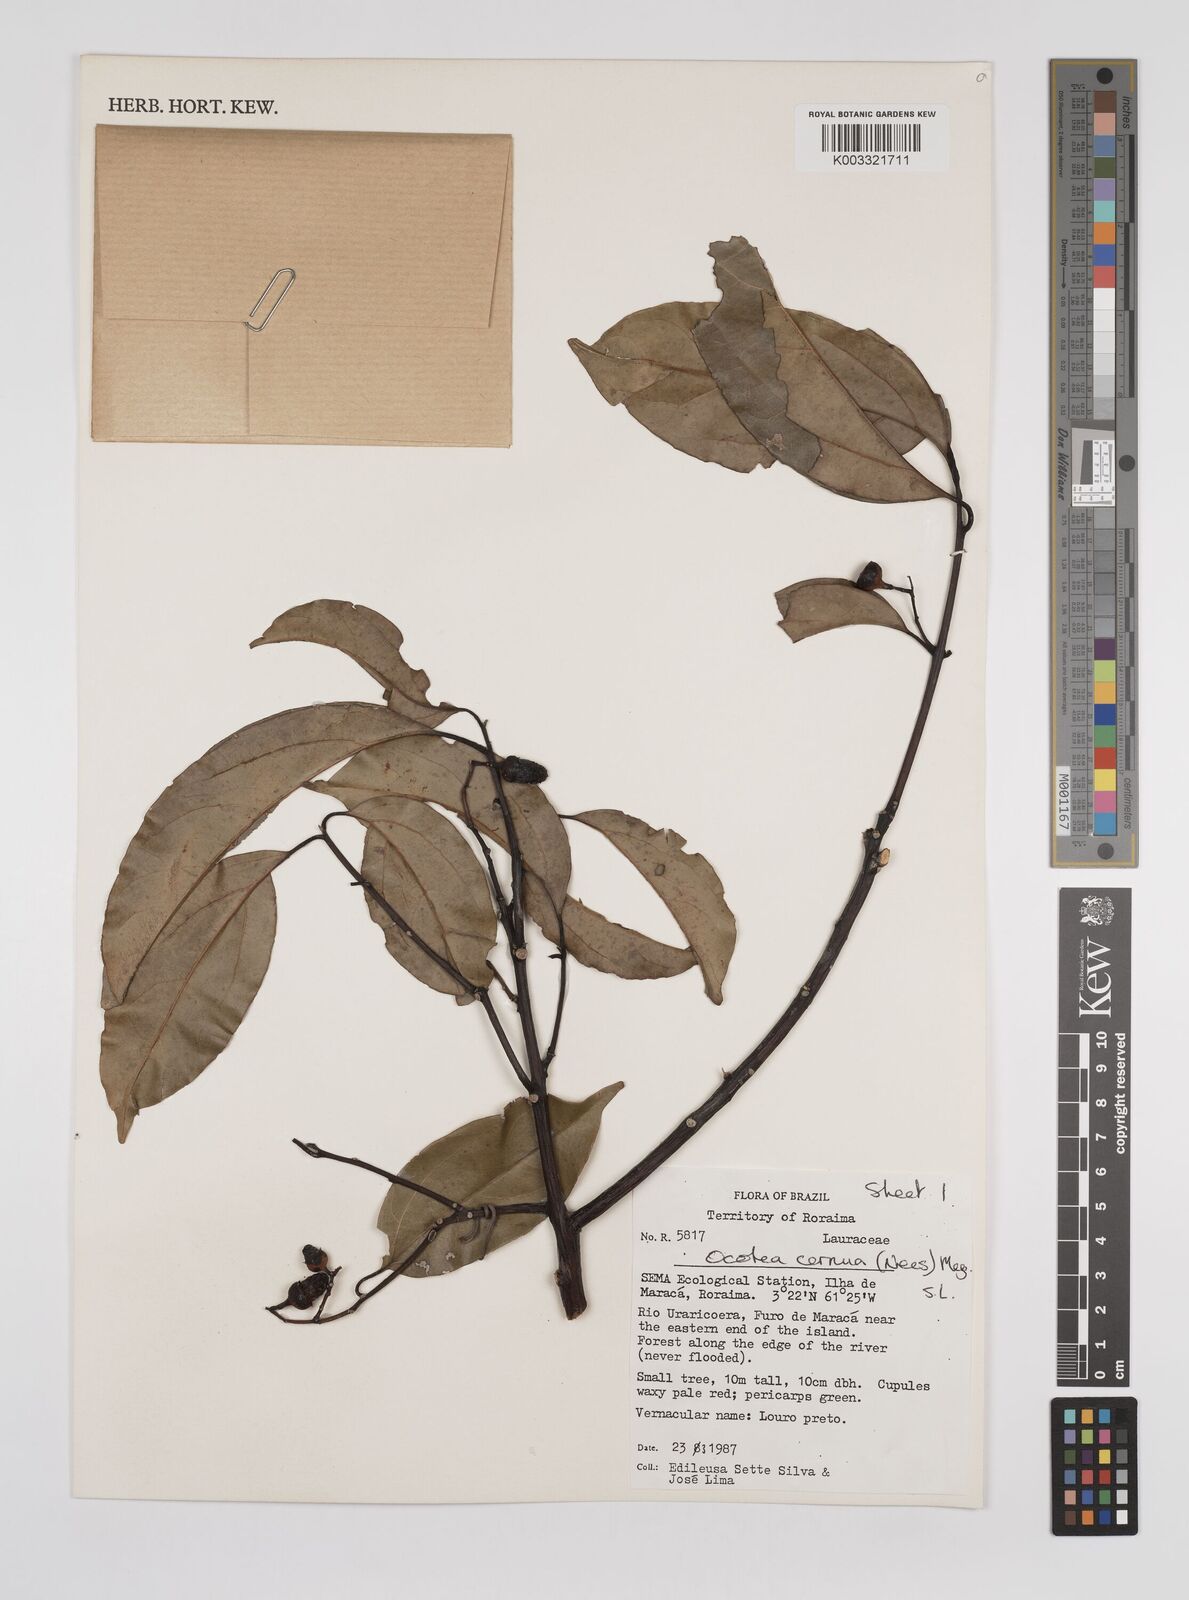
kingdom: Plantae
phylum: Tracheophyta
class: Magnoliopsida
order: Laurales
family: Lauraceae
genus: Ocotea
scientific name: Ocotea leptobotra
